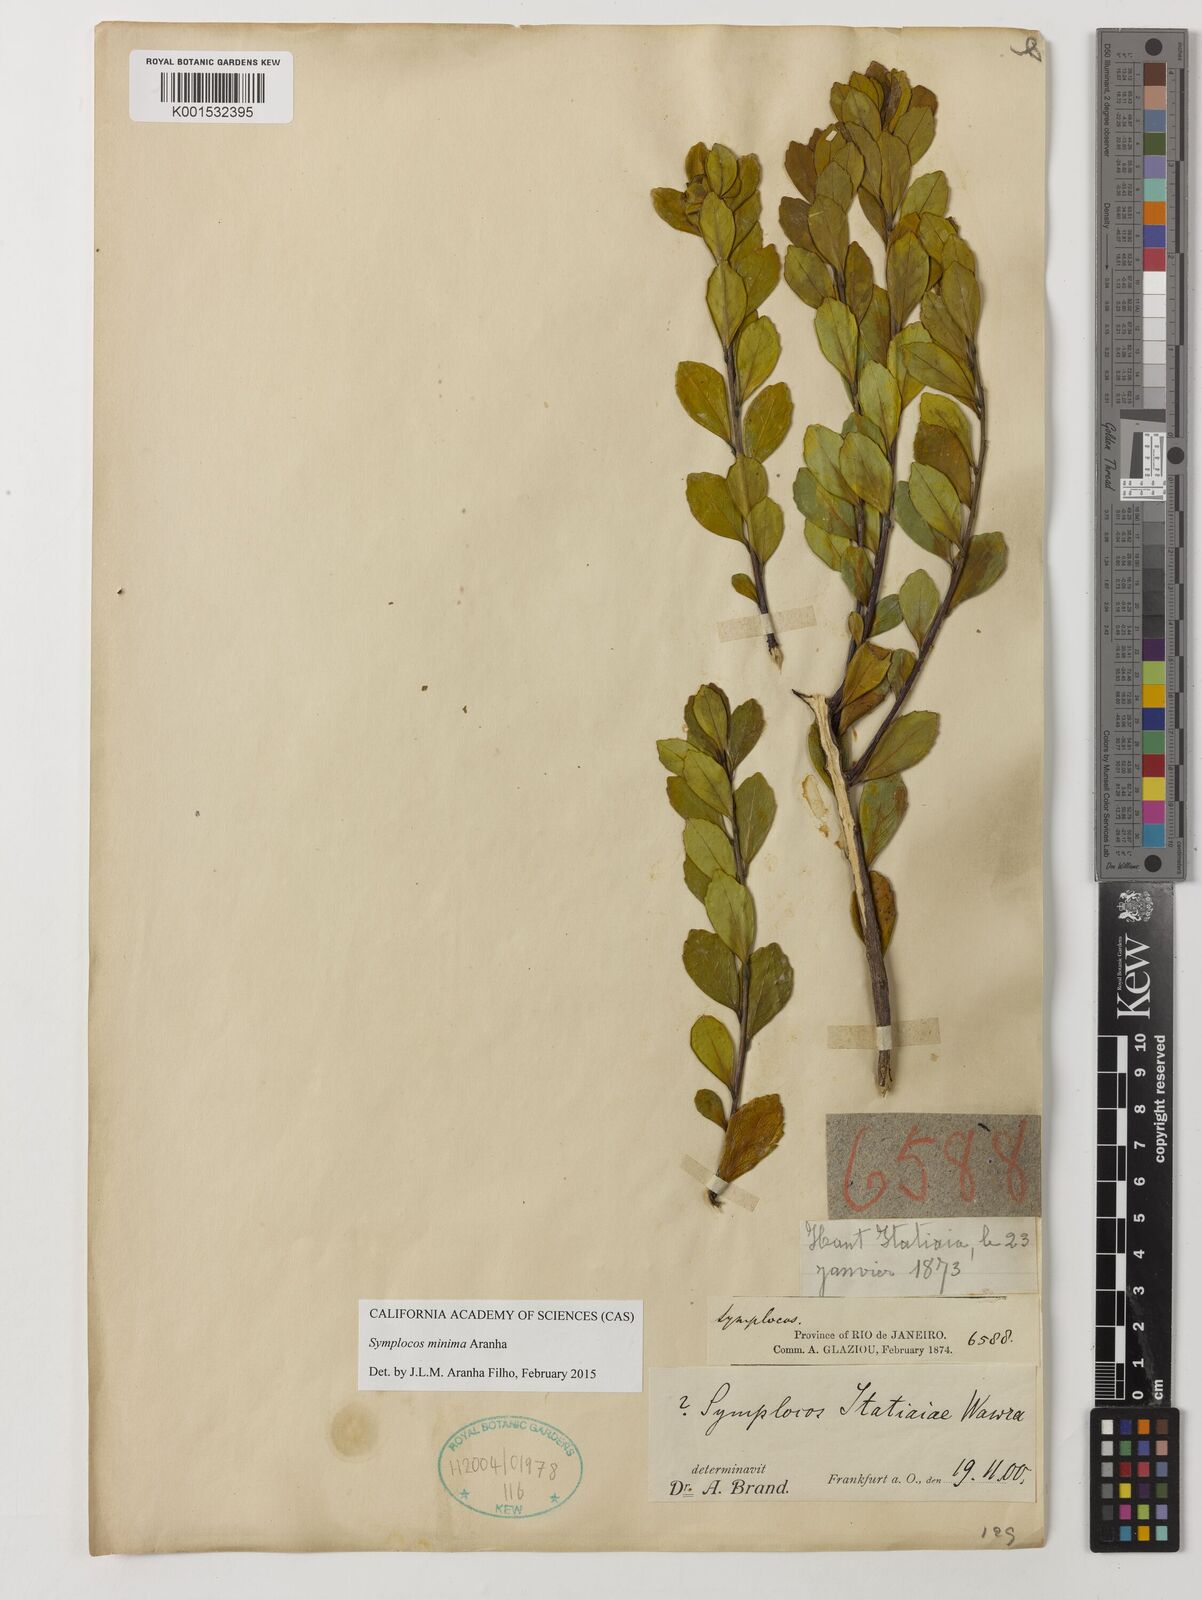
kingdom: Plantae
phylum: Tracheophyta
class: Magnoliopsida
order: Ericales
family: Symplocaceae
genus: Symplocos
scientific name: Symplocos minima
